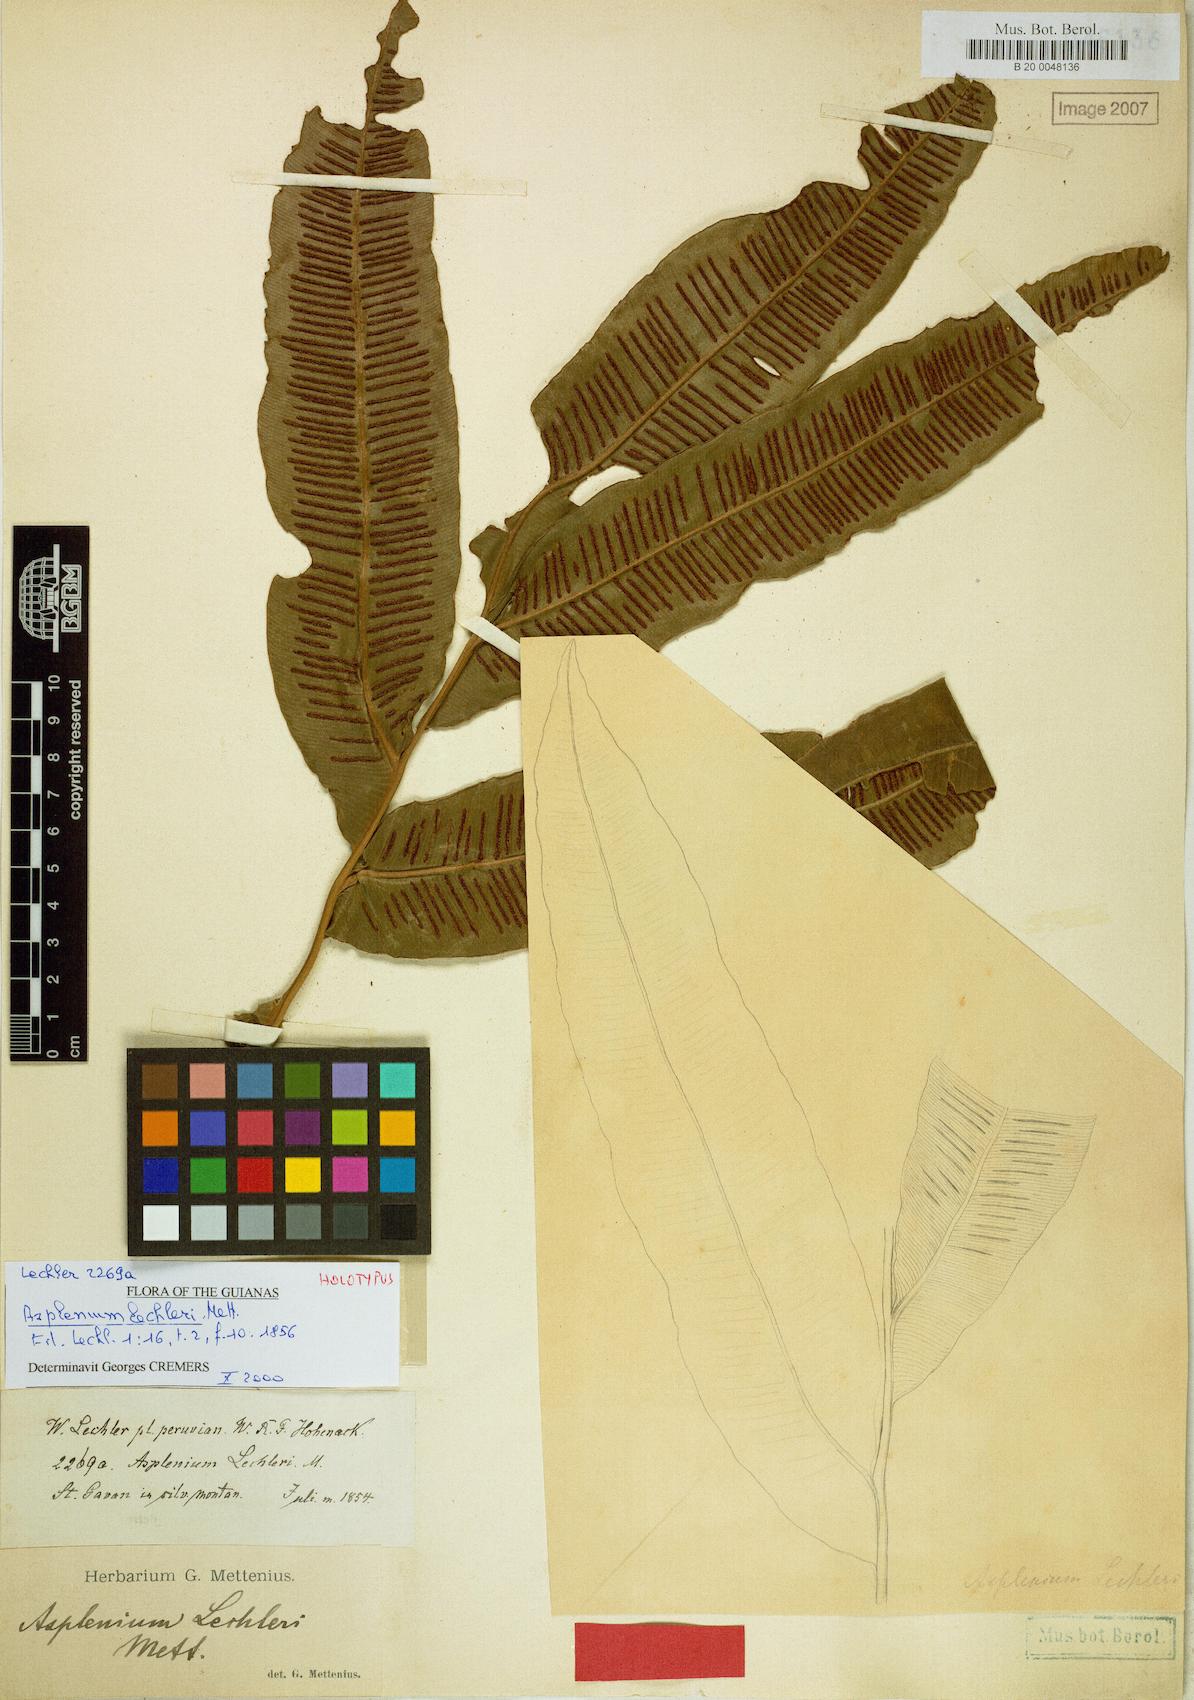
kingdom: Plantae
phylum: Tracheophyta
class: Polypodiopsida
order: Polypodiales
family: Desmophlebiaceae
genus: Desmophlebium
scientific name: Desmophlebium lechleri
